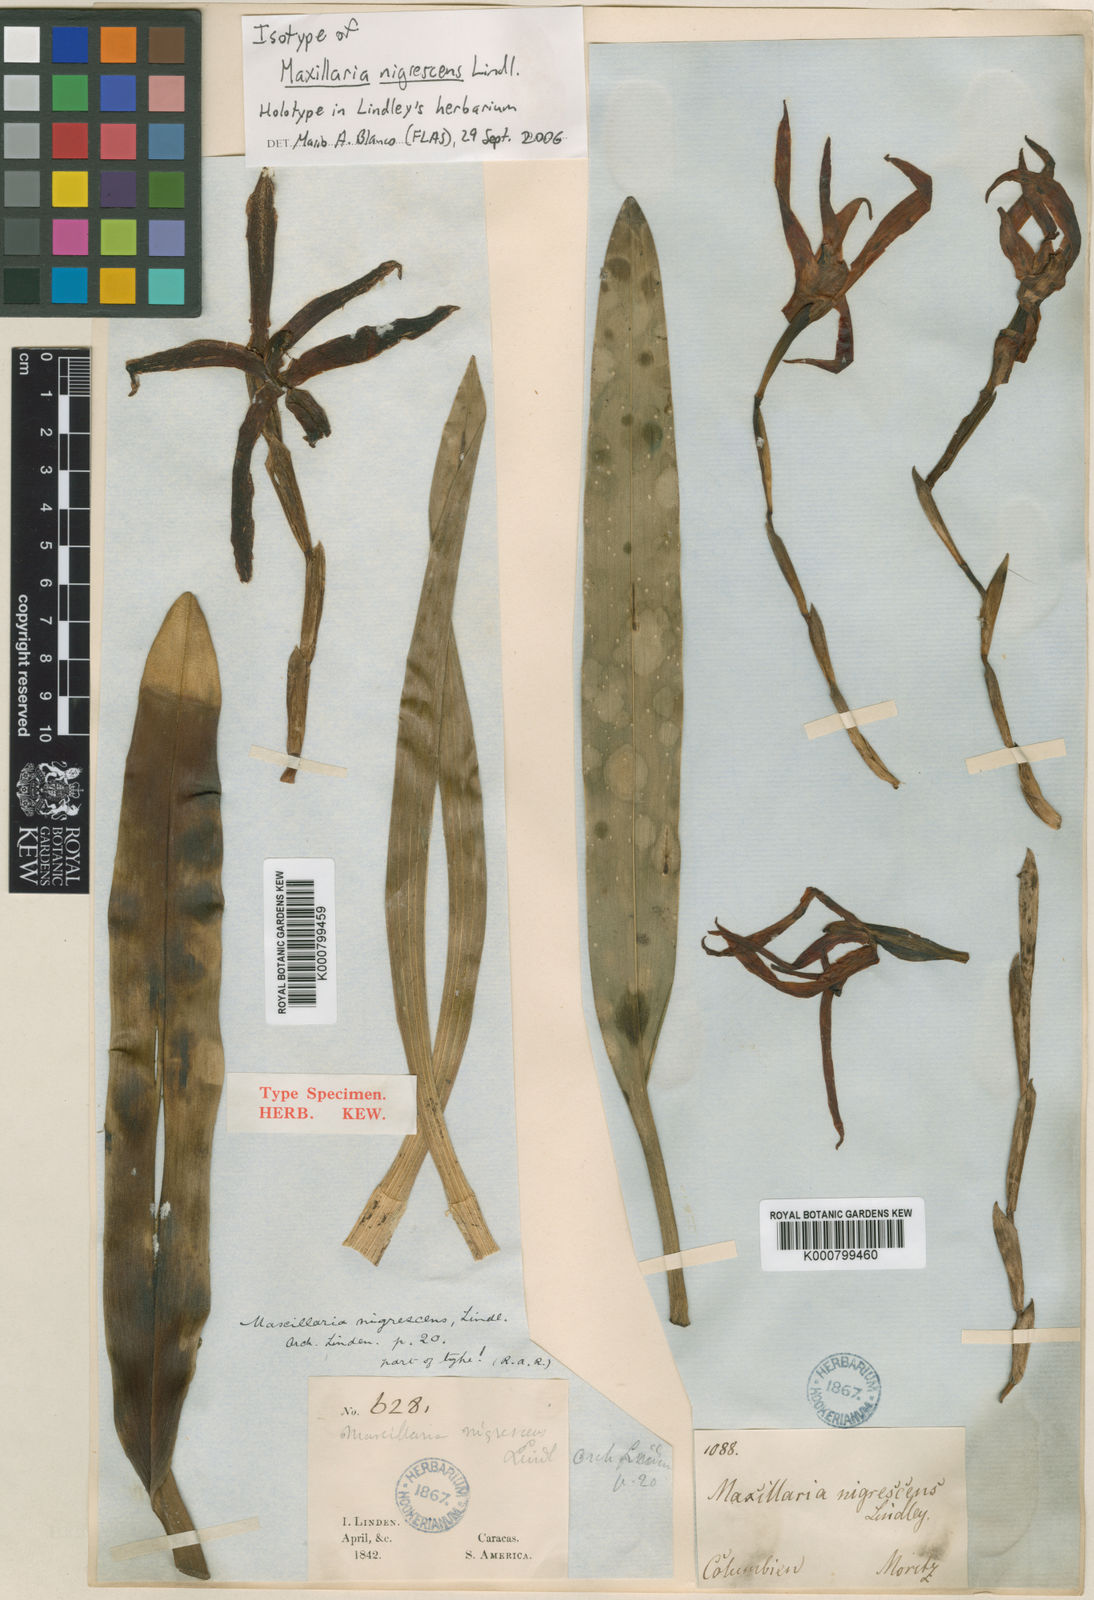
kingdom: Plantae
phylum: Tracheophyta
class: Liliopsida
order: Asparagales
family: Orchidaceae
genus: Maxillaria
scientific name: Maxillaria nigrescens
